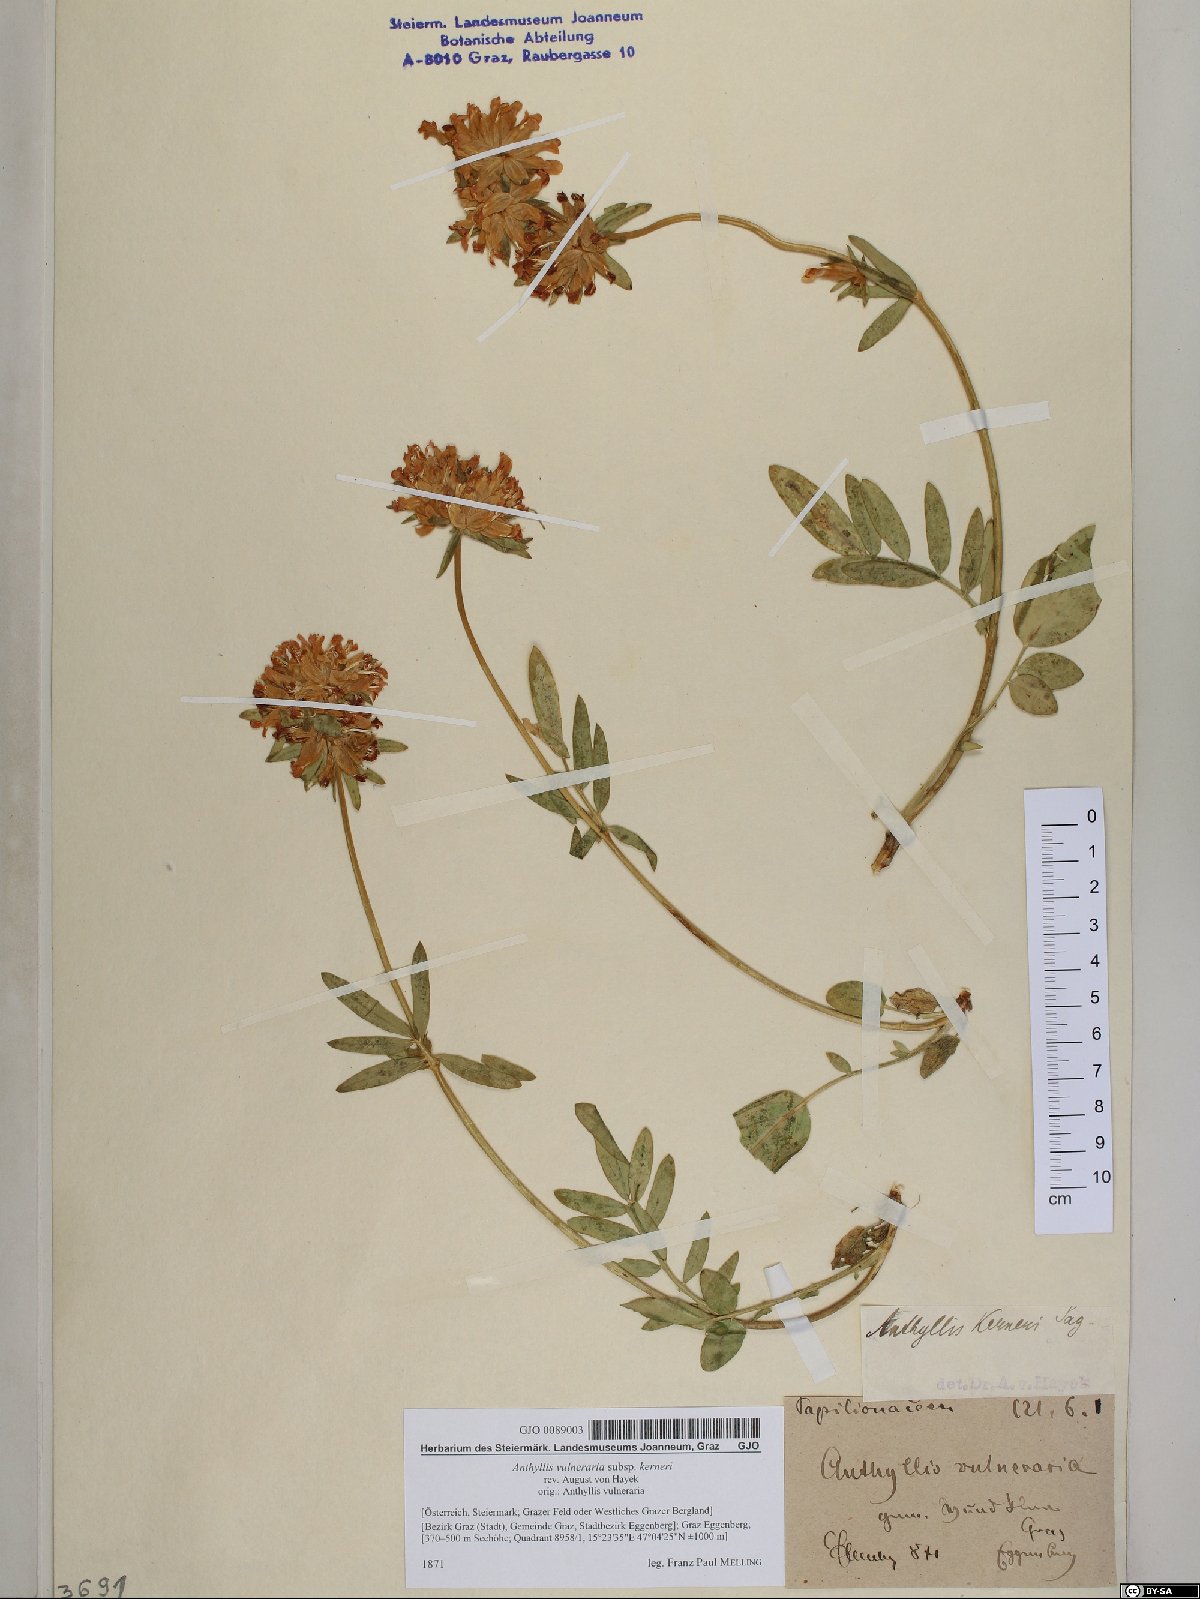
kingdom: Plantae
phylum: Tracheophyta
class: Magnoliopsida
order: Fabales
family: Fabaceae
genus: Anthyllis
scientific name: Anthyllis vulneraria
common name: Kidney vetch
